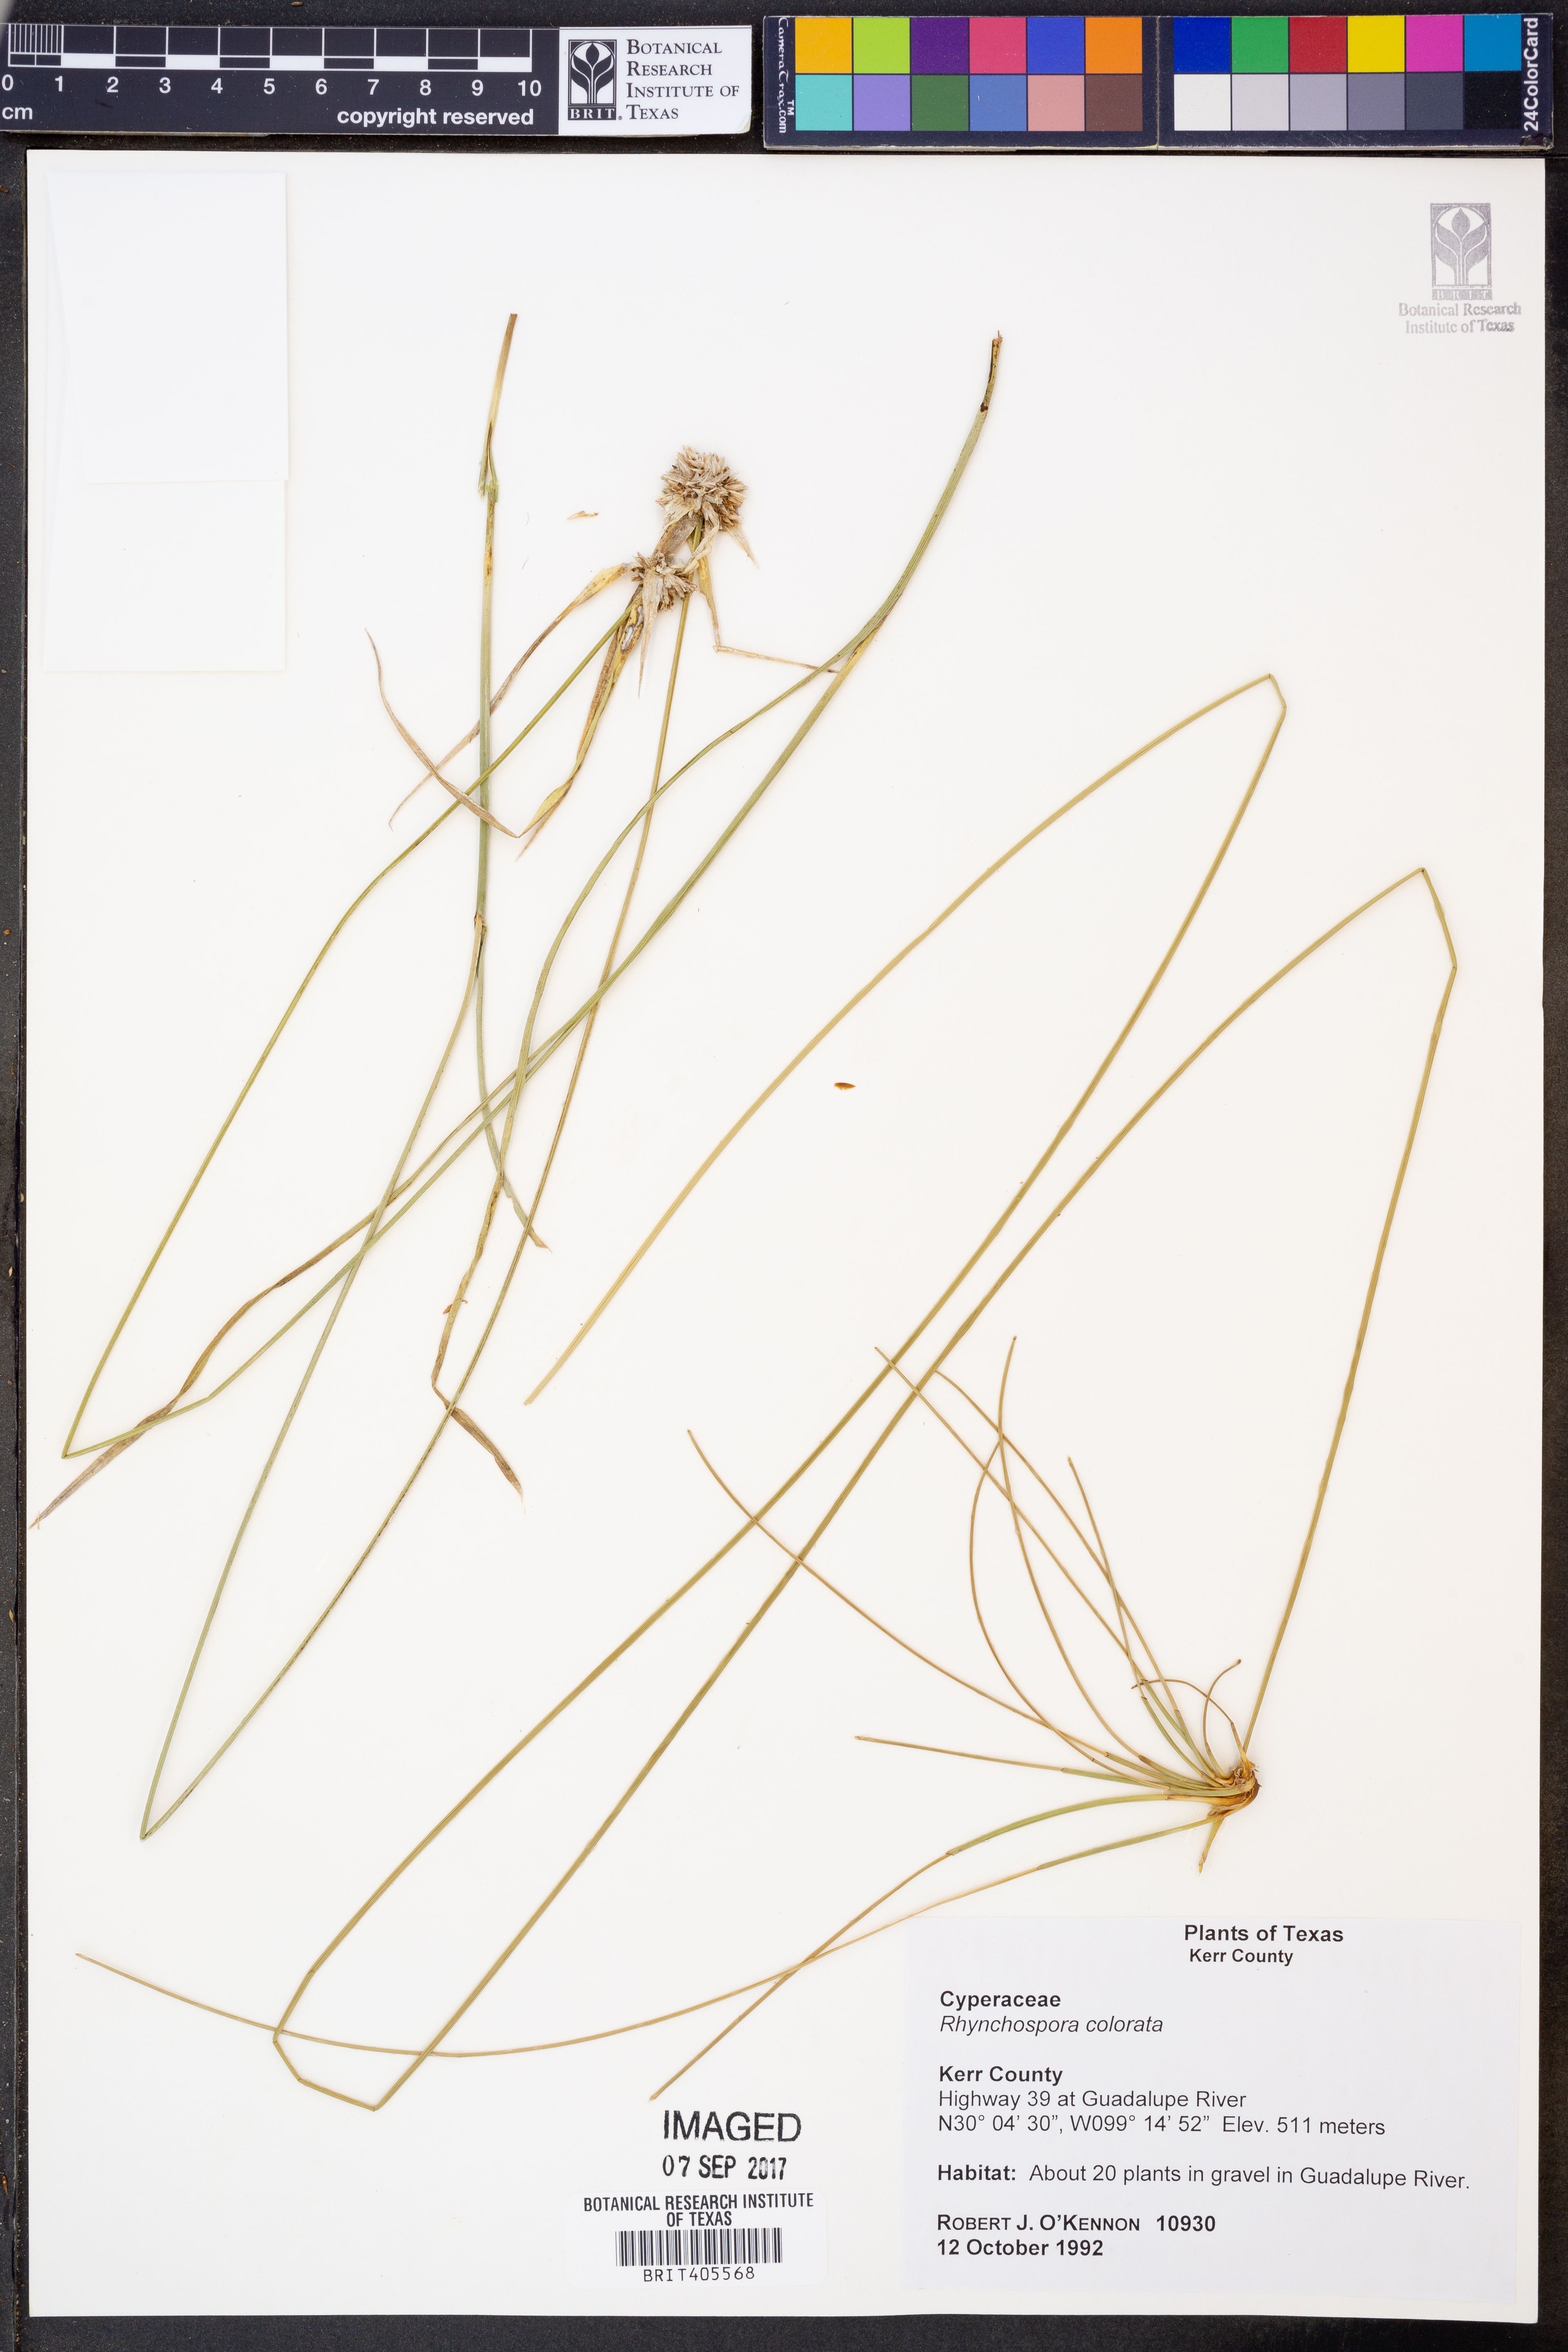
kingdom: Plantae
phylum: Tracheophyta
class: Liliopsida
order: Poales
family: Cyperaceae
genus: Rhynchospora
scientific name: Rhynchospora colorata
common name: Star sedge
